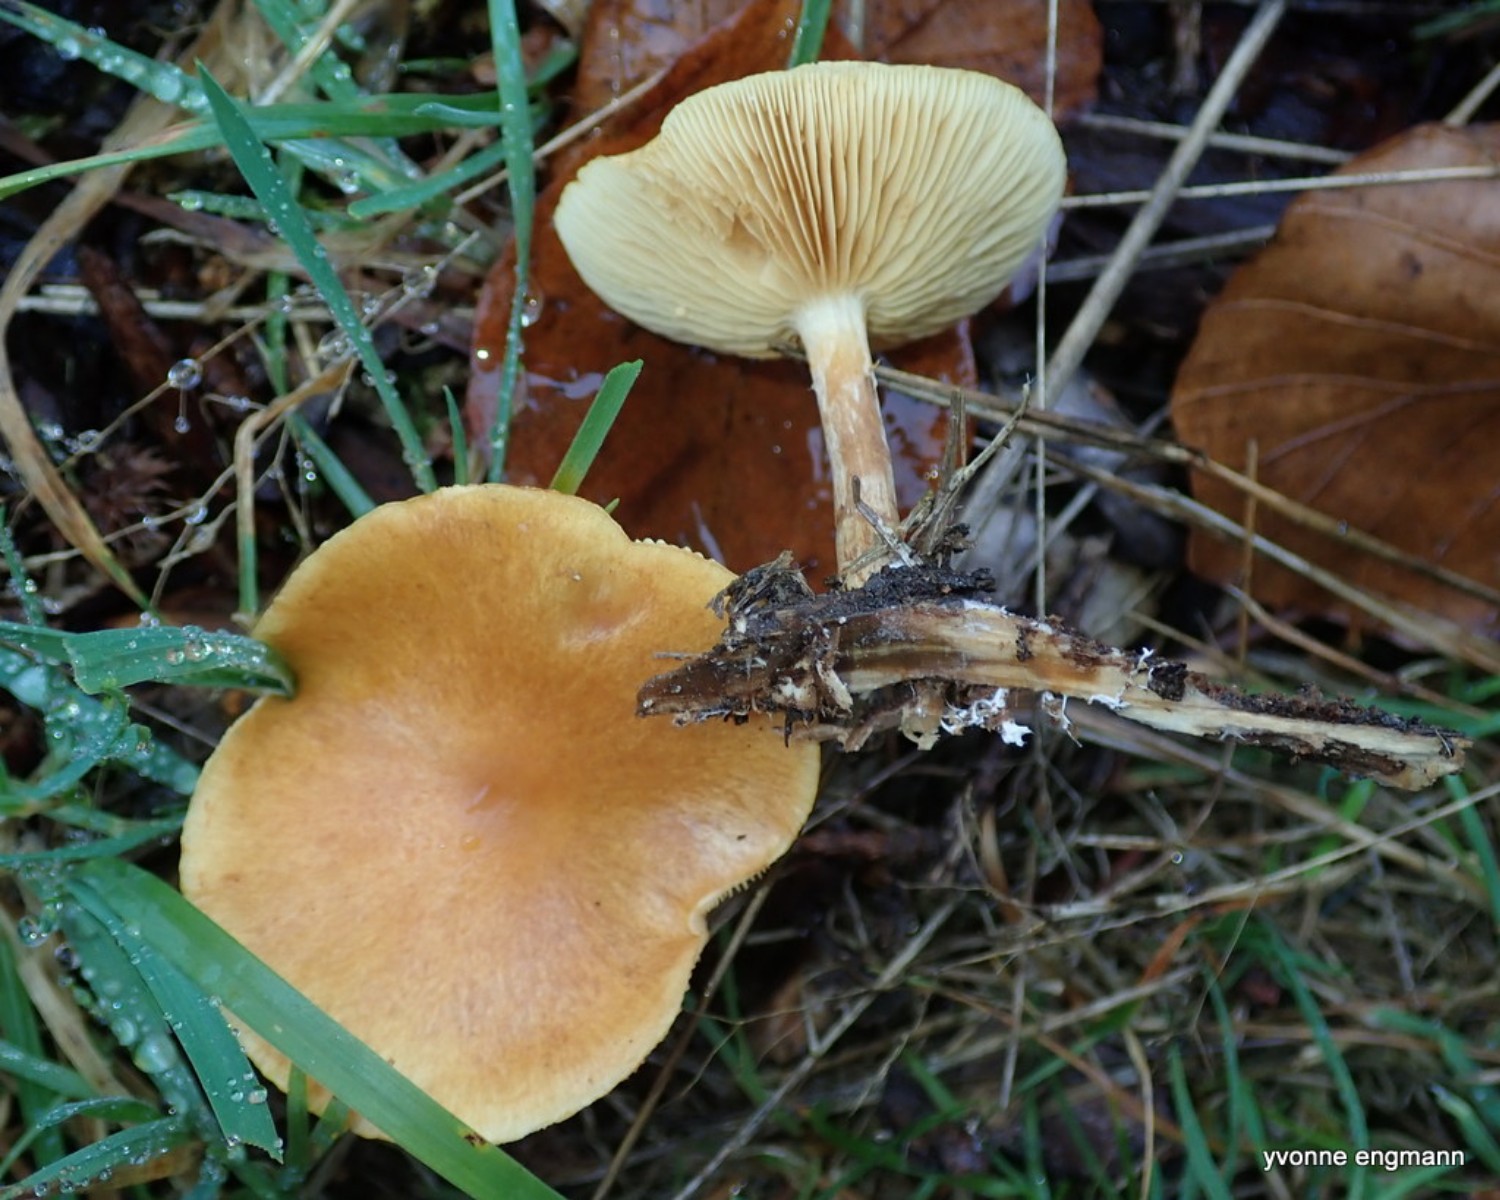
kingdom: Fungi
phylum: Basidiomycota
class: Agaricomycetes
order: Agaricales
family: Hymenogastraceae
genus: Gymnopilus
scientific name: Gymnopilus penetrans
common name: plettet flammehat
